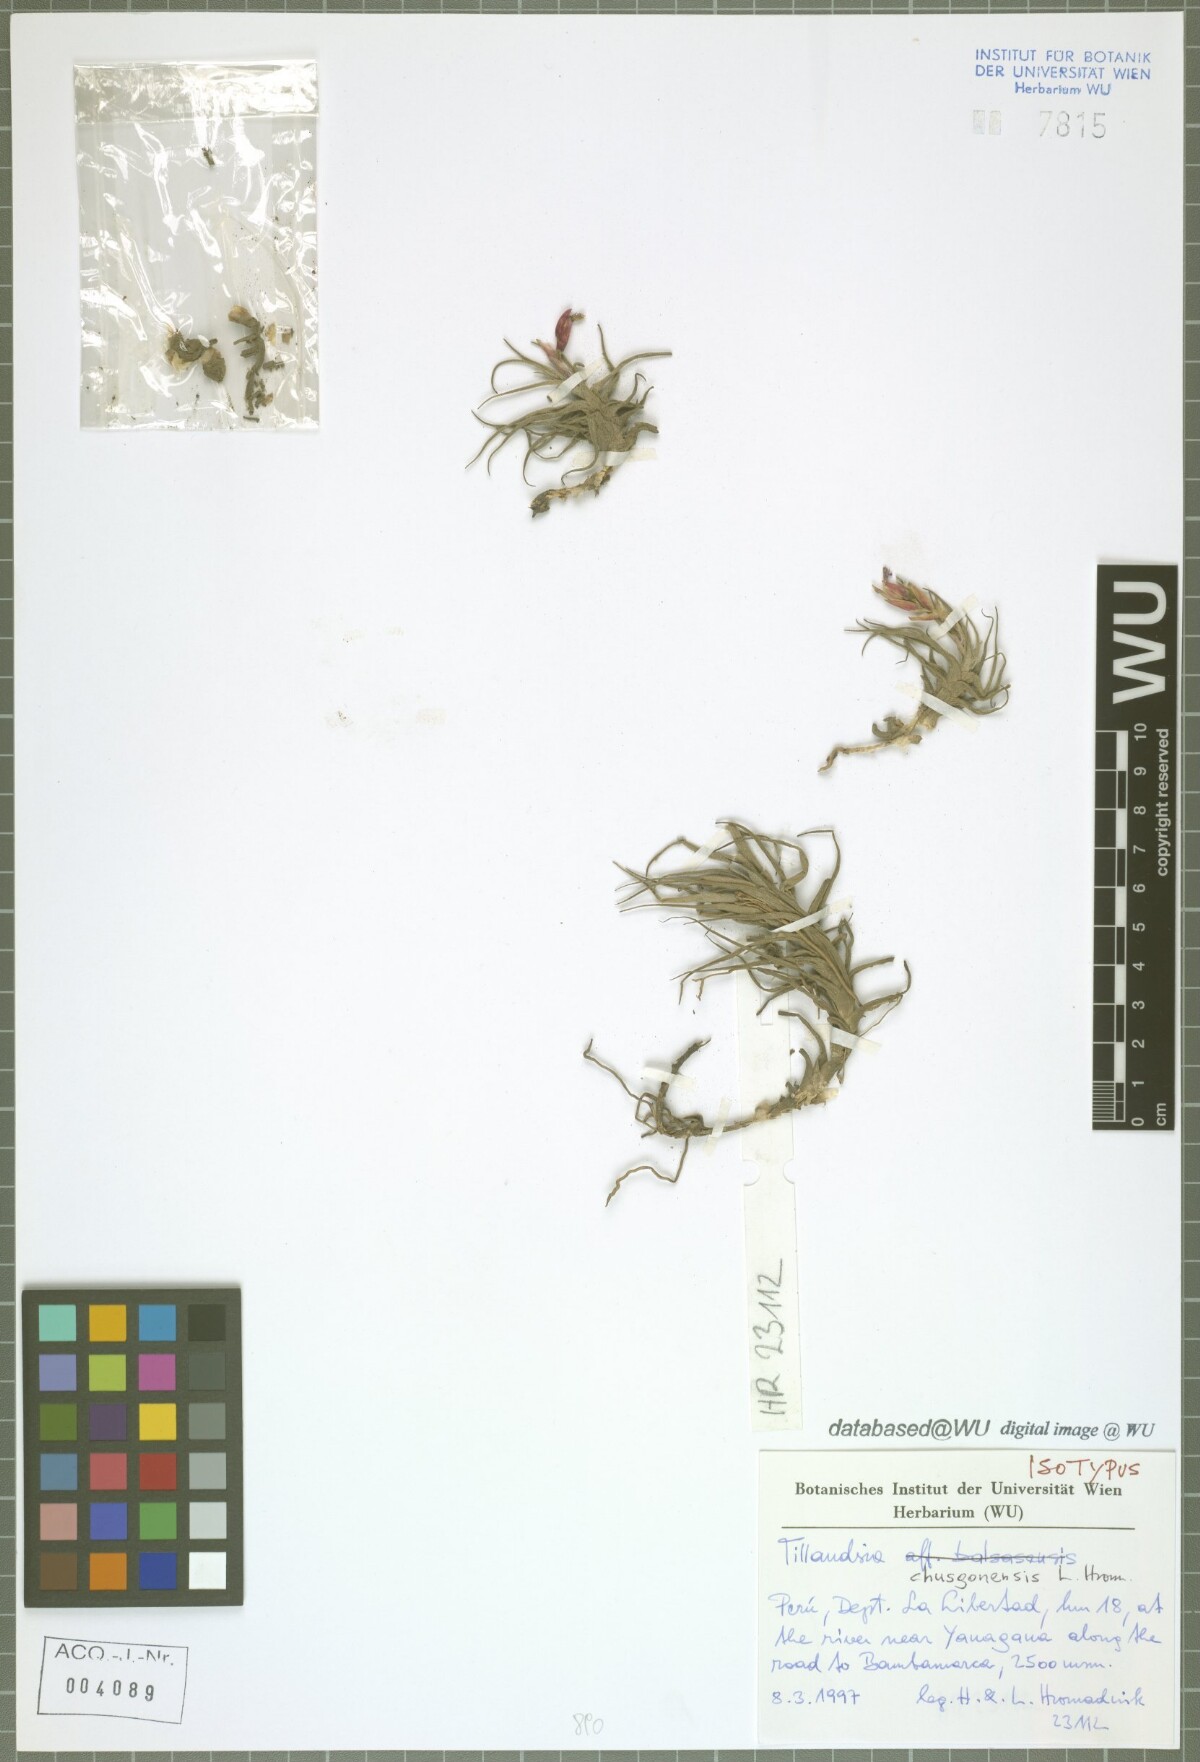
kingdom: Plantae
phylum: Tracheophyta
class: Liliopsida
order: Poales
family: Bromeliaceae
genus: Tillandsia
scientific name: Tillandsia chusgonensis
